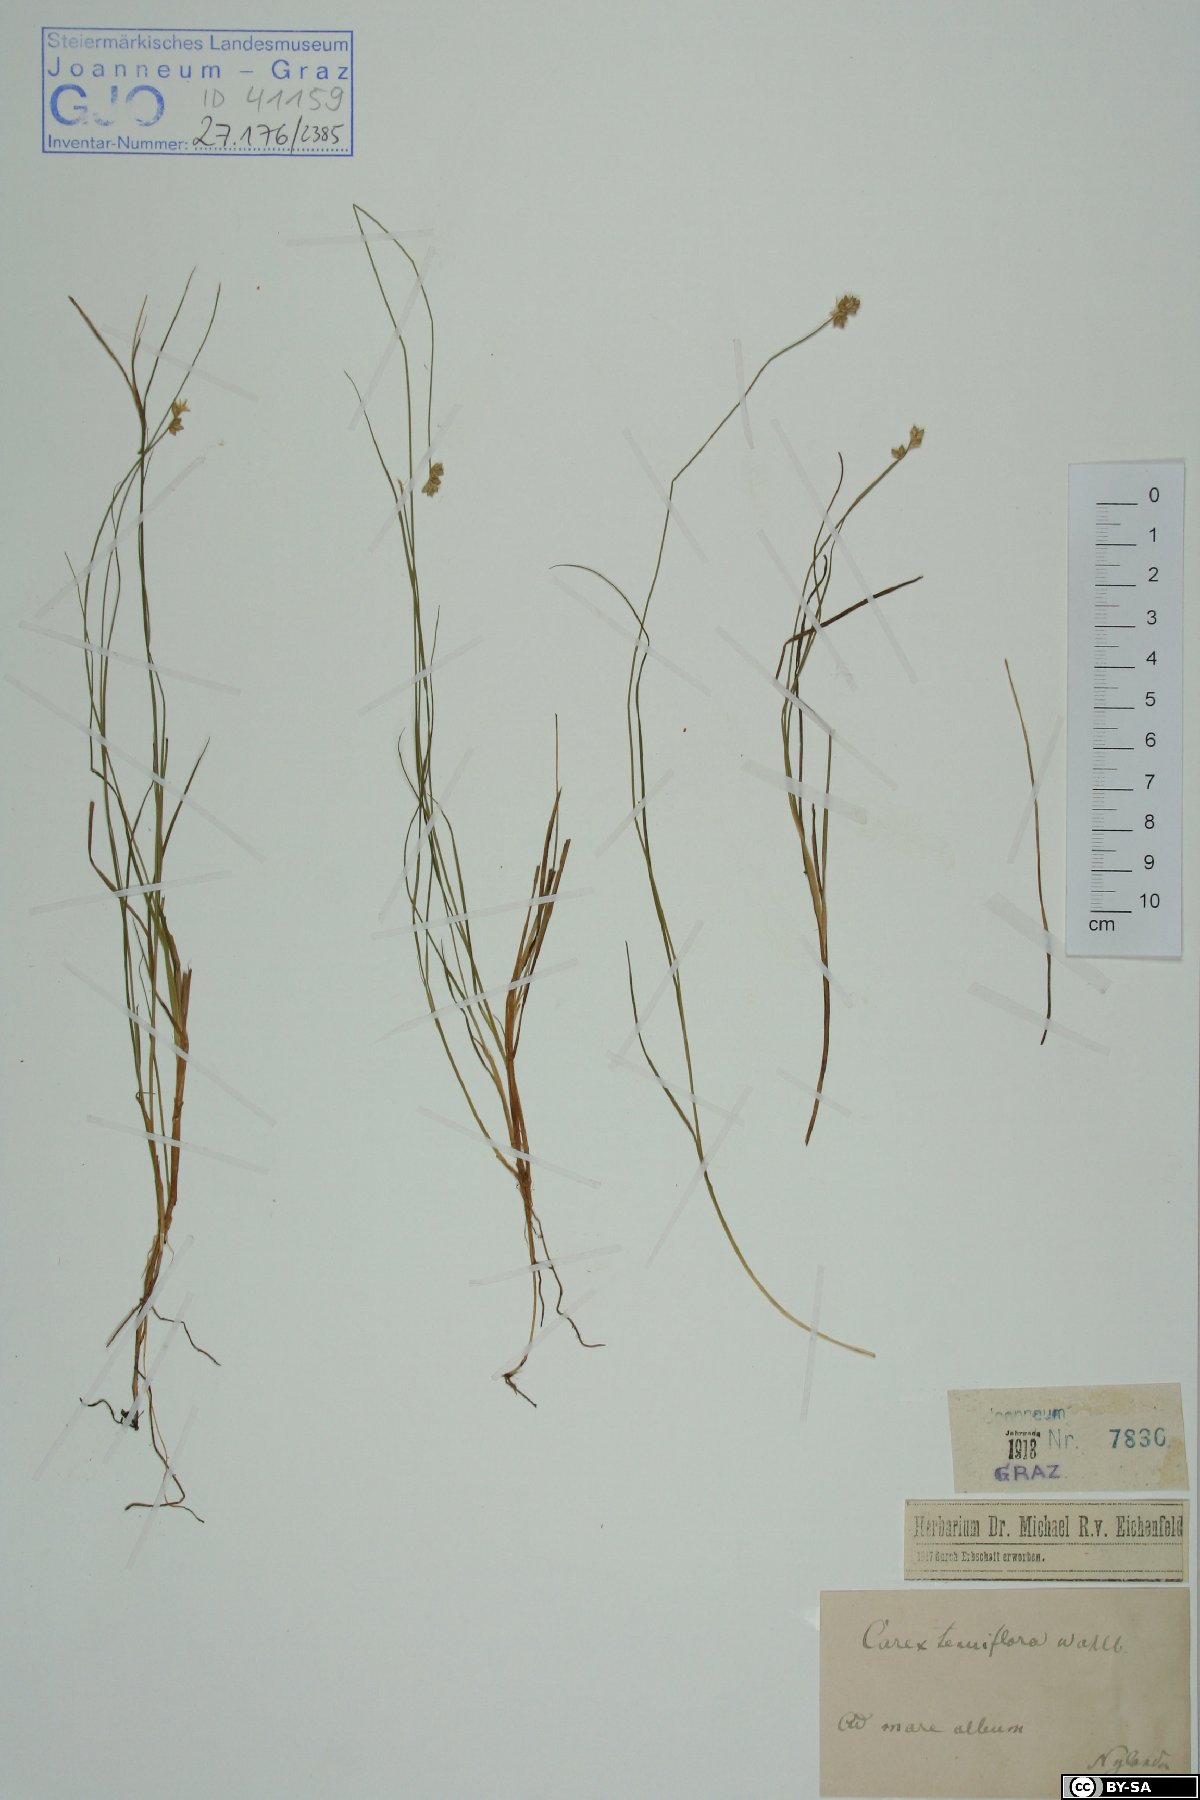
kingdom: Plantae
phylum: Tracheophyta
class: Liliopsida
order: Poales
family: Cyperaceae
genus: Carex
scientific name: Carex tenuiflora
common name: Sparse-flowered sedge
